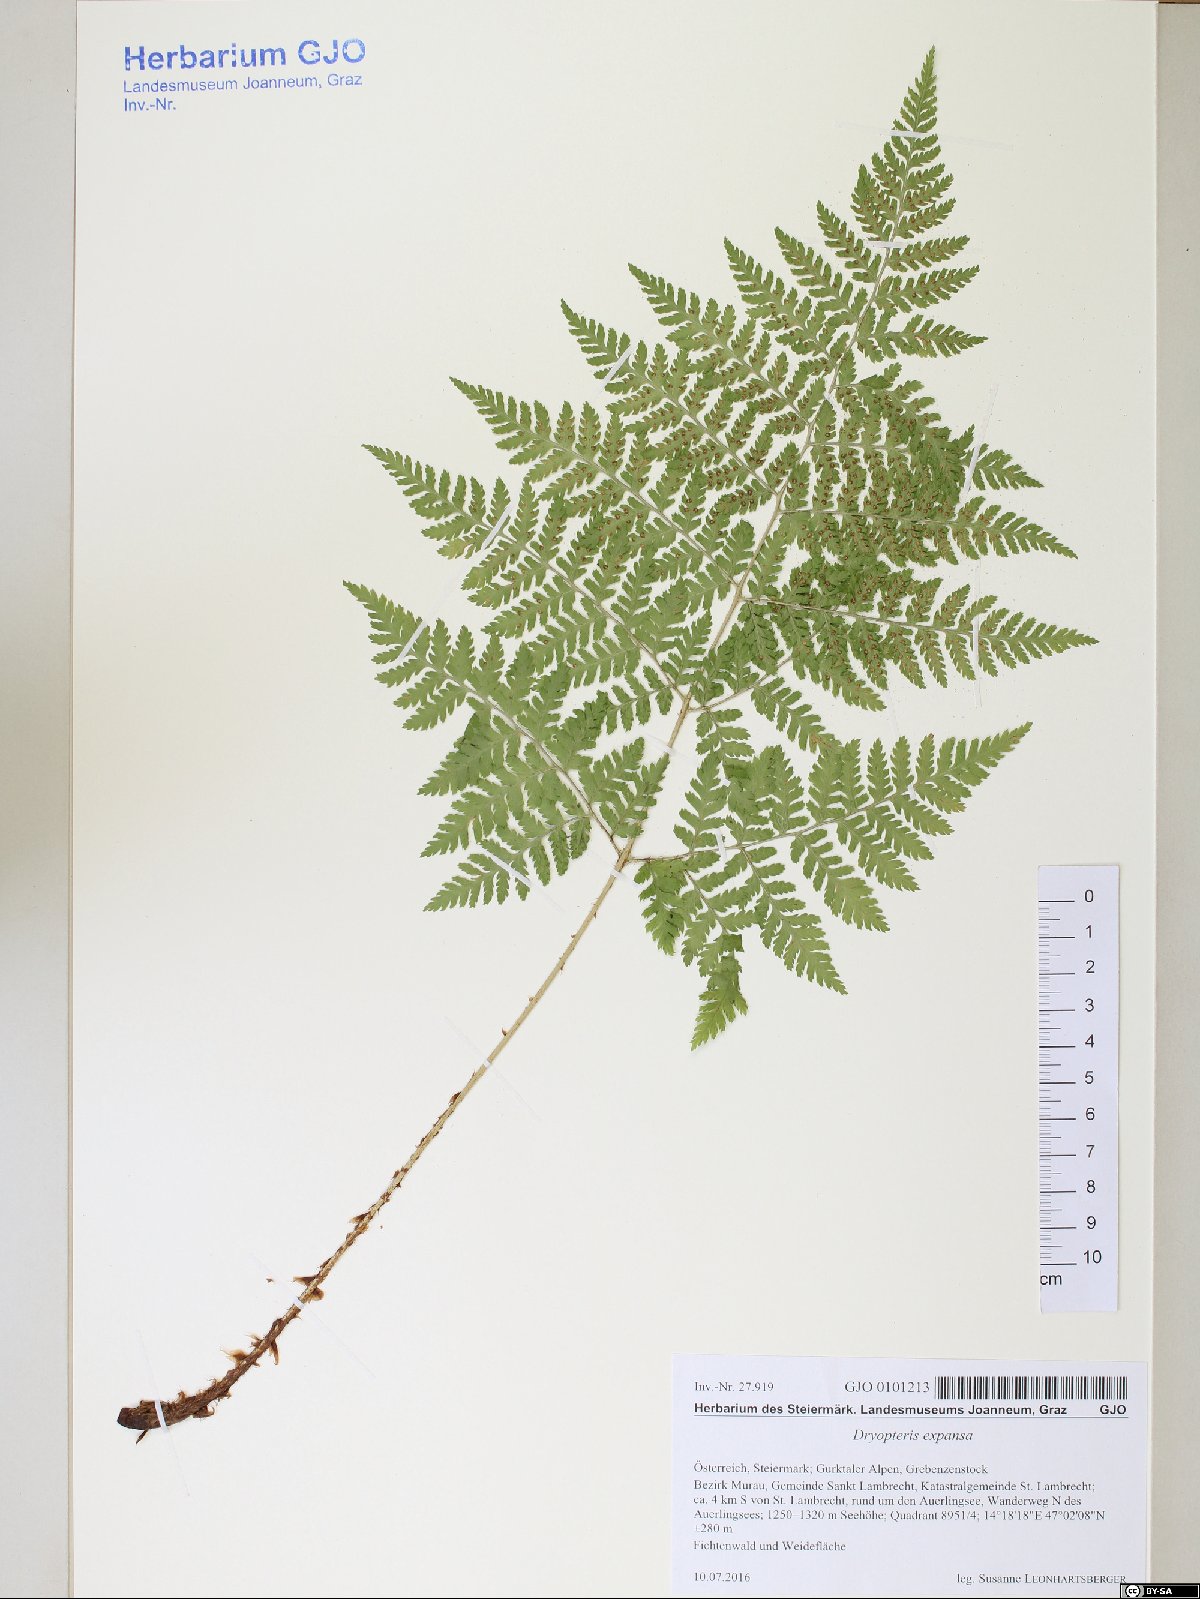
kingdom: Plantae
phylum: Tracheophyta
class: Polypodiopsida
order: Polypodiales
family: Dryopteridaceae
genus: Dryopteris
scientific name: Dryopteris expansa
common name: Northern buckler fern
